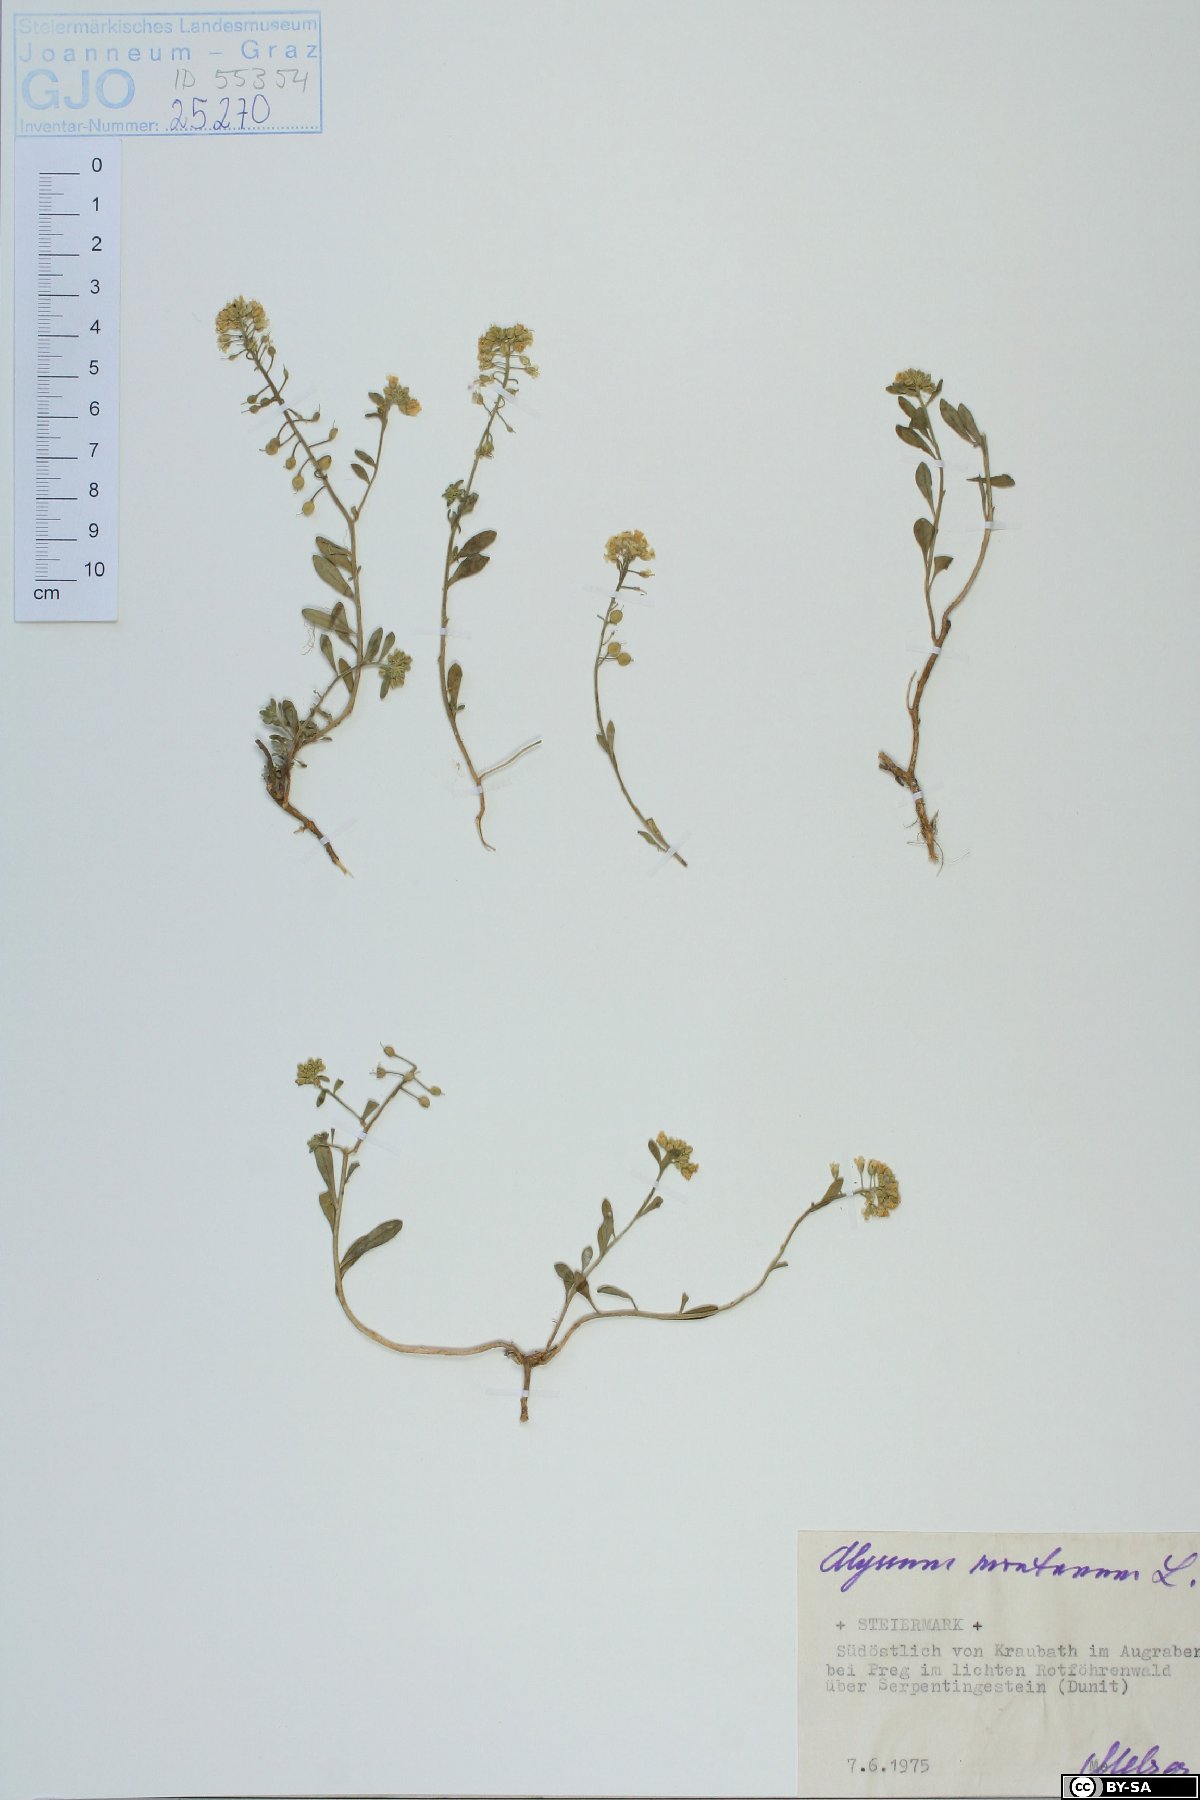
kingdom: Plantae
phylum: Tracheophyta
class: Magnoliopsida
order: Brassicales
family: Brassicaceae
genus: Alyssum
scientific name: Alyssum montanum
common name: Mountain alison
